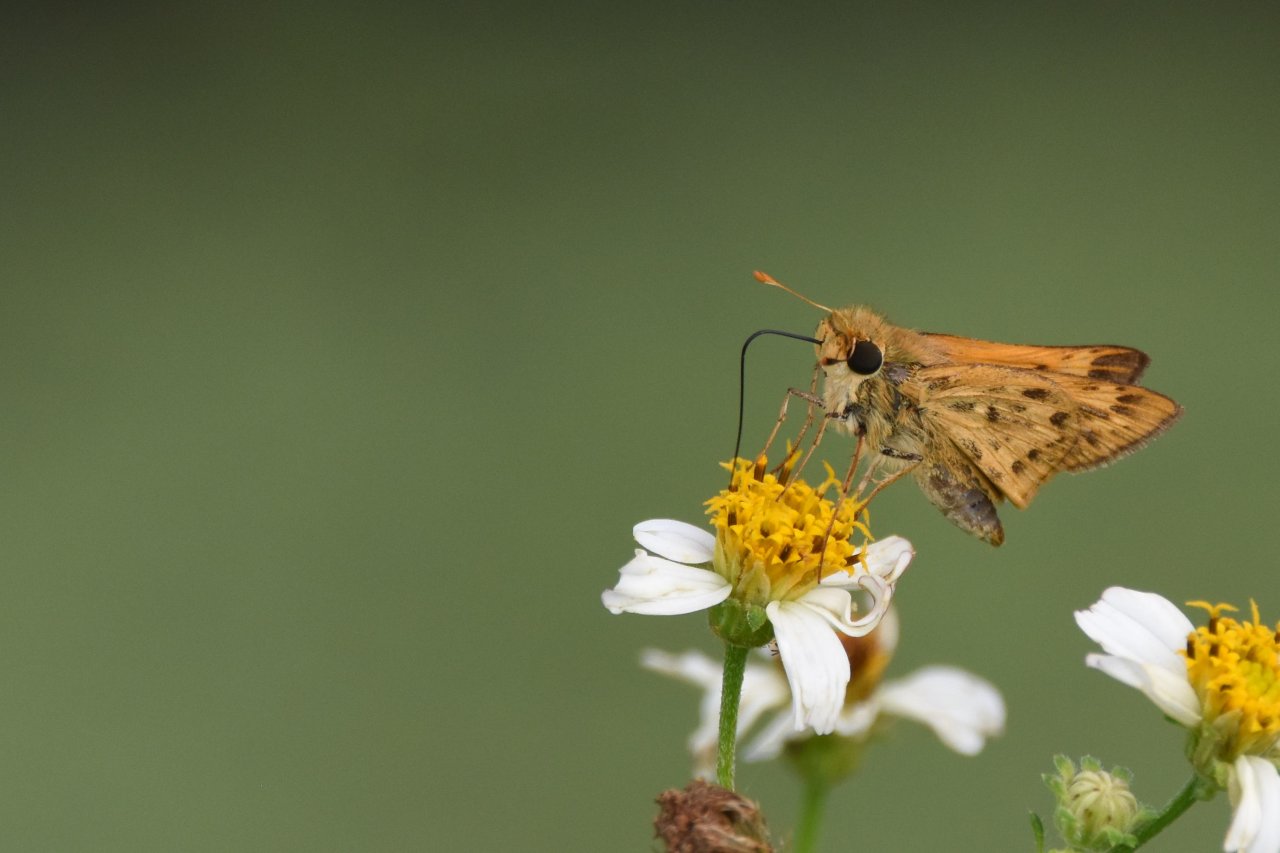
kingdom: Animalia
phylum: Arthropoda
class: Insecta
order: Lepidoptera
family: Hesperiidae
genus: Hylephila
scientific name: Hylephila phyleus
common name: Fiery Skipper
